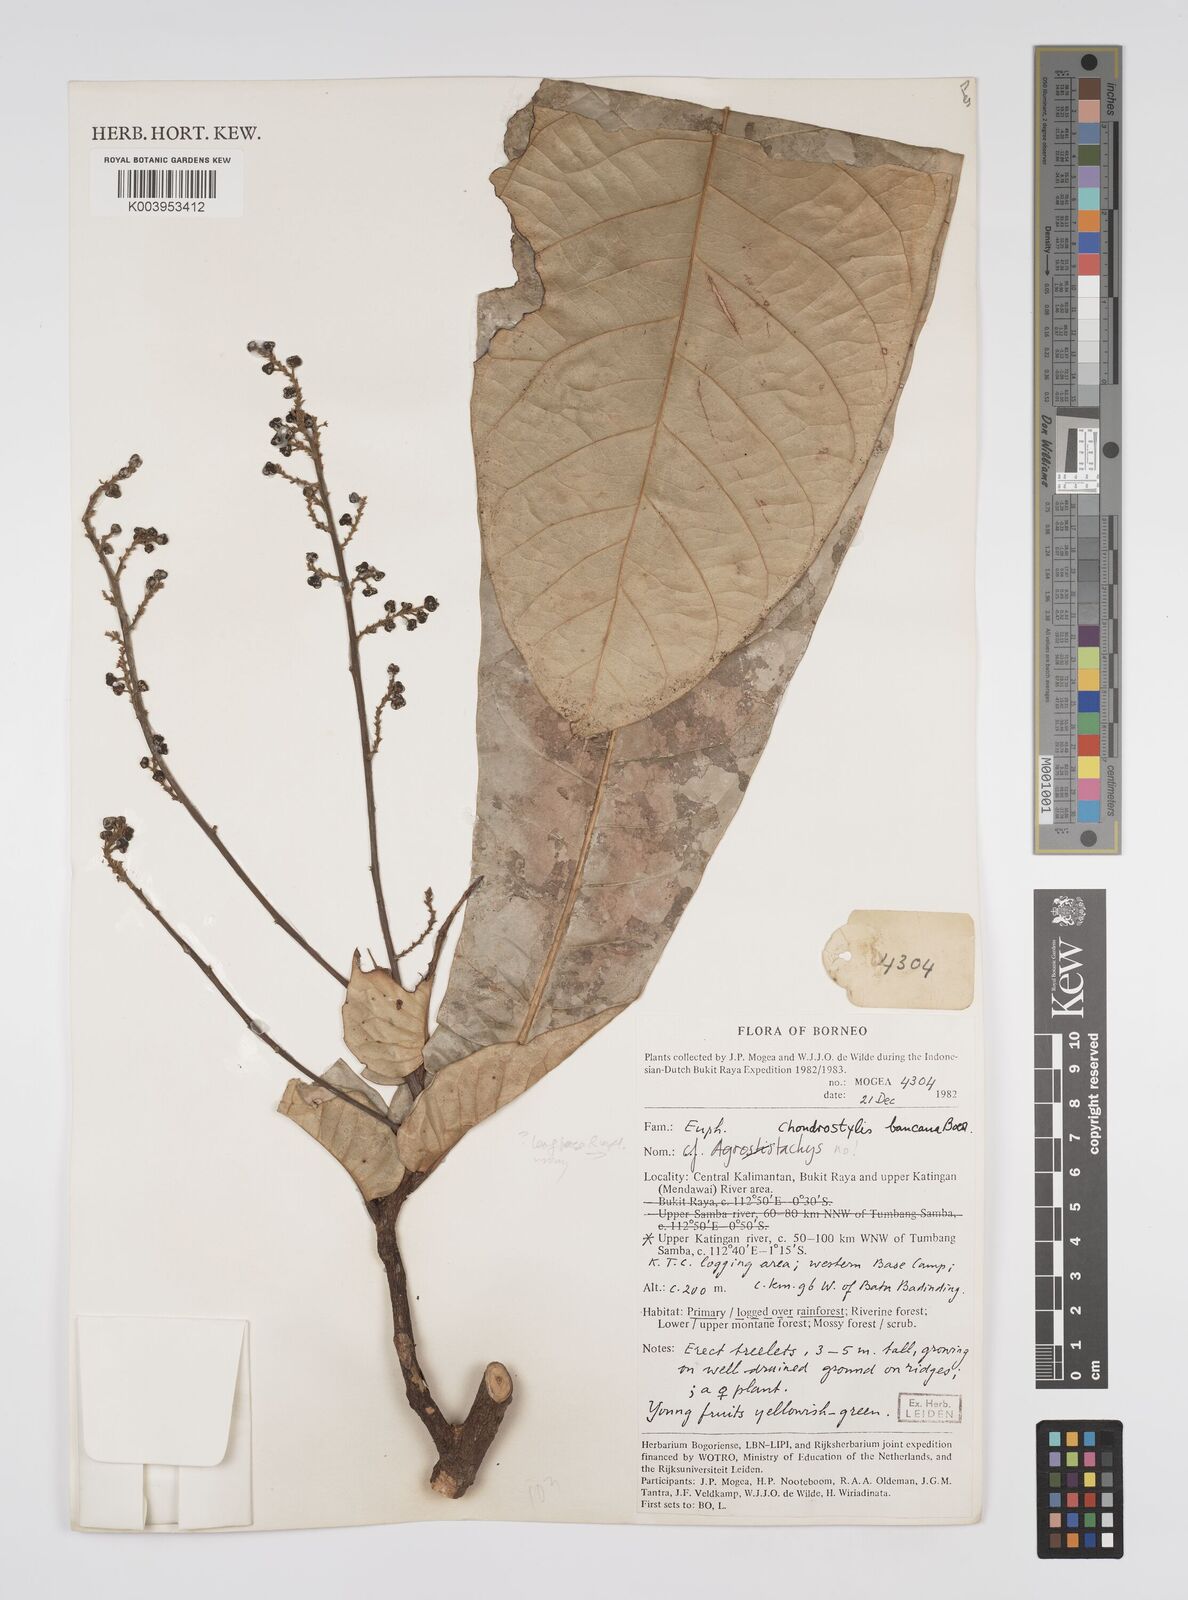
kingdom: Plantae
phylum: Tracheophyta
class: Magnoliopsida
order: Malpighiales
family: Euphorbiaceae
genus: Chondrostylis
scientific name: Chondrostylis bancana
